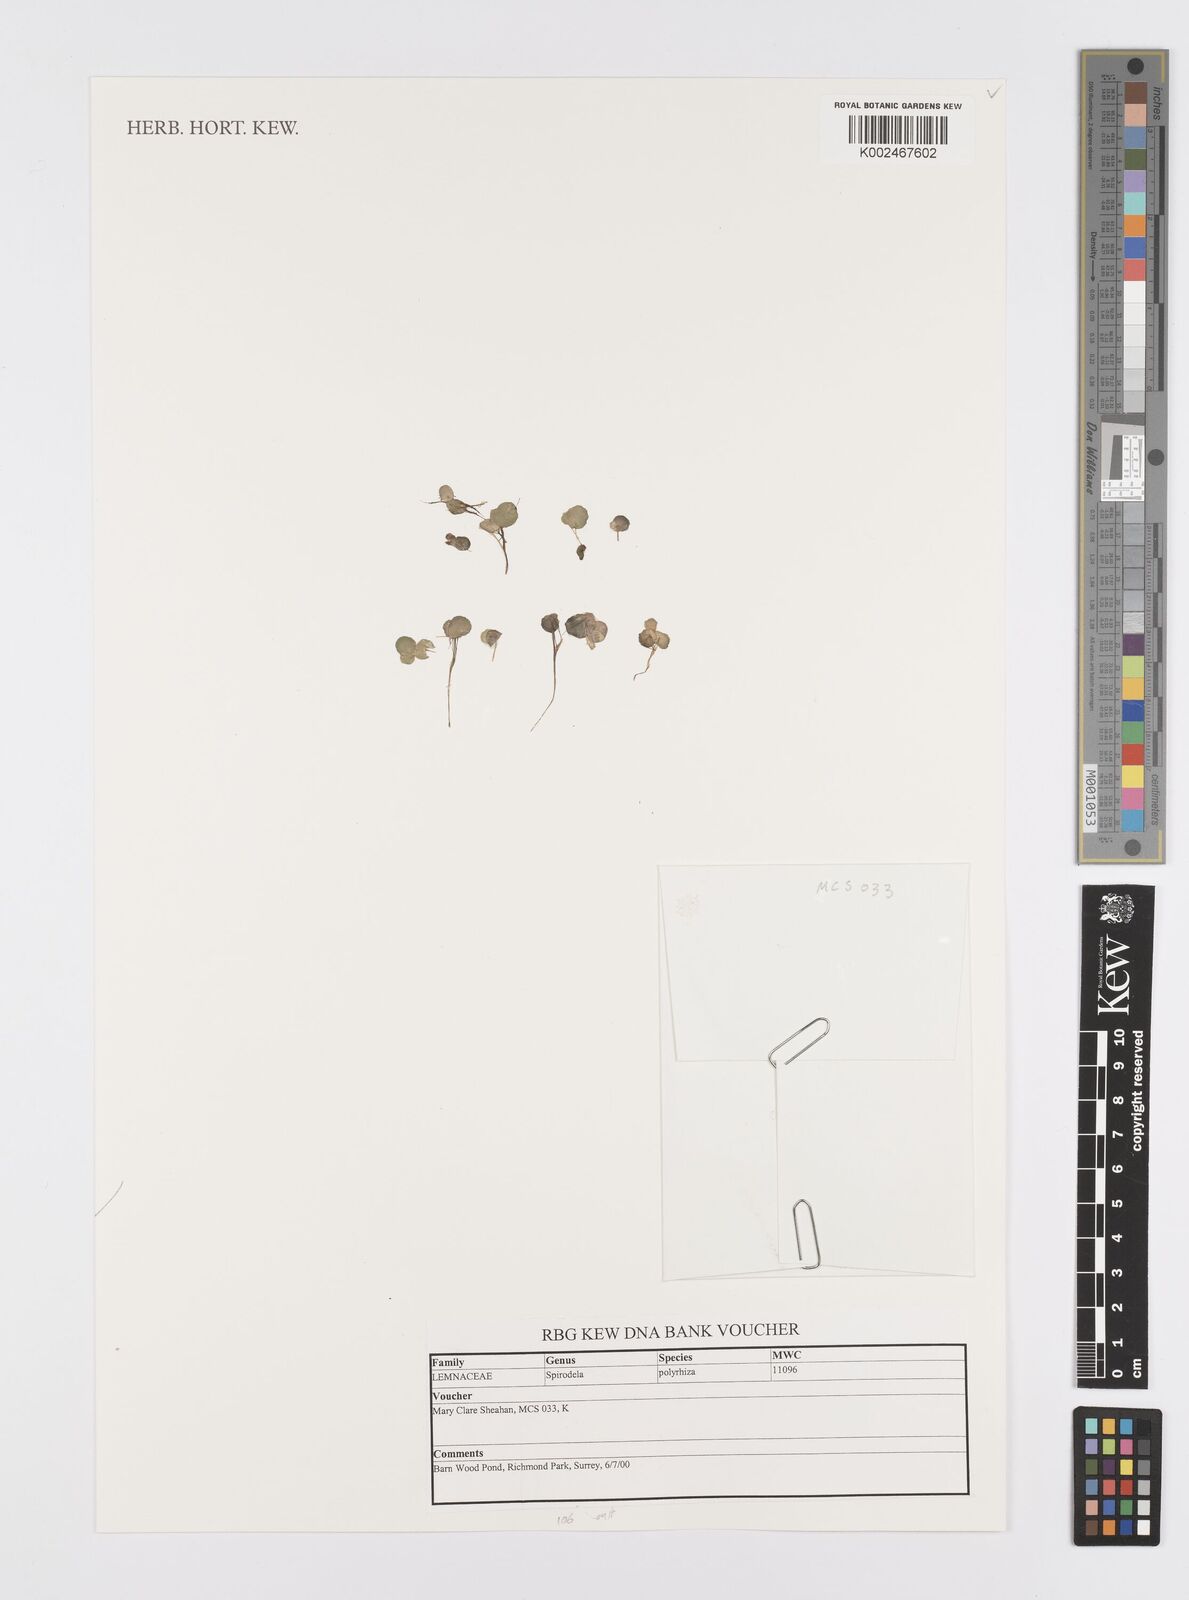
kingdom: Plantae
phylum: Tracheophyta
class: Liliopsida
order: Alismatales
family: Araceae
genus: Spirodela
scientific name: Spirodela polyrhiza
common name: Great duckweed
